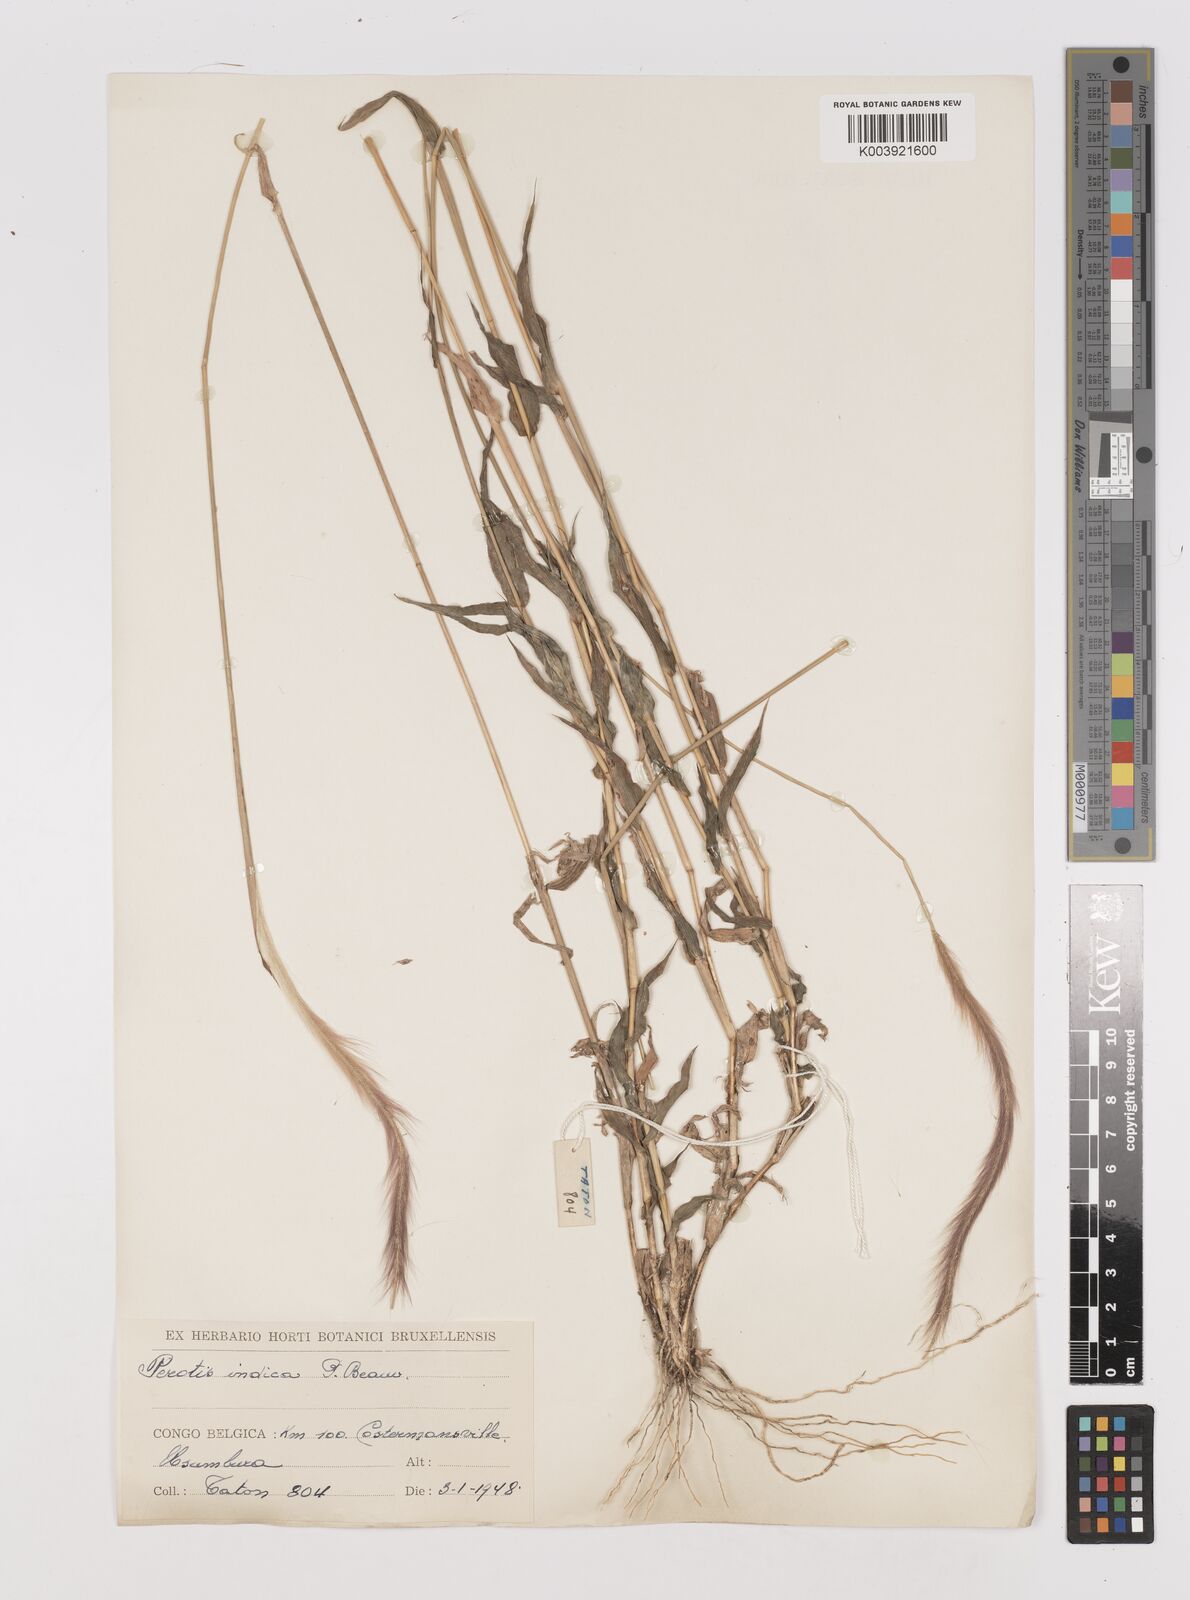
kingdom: Plantae
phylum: Tracheophyta
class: Liliopsida
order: Poales
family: Poaceae
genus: Perotis
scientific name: Perotis patens
